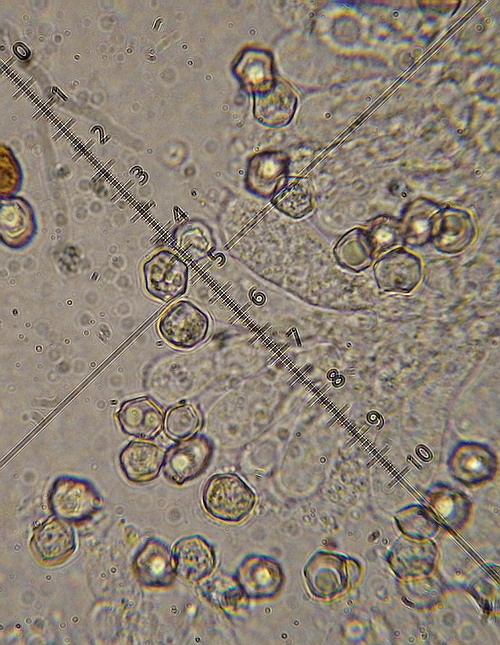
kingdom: Fungi
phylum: Basidiomycota
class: Agaricomycetes
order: Agaricales
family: Entolomataceae
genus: Entoloma
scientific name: Entoloma sericeum
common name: silkeglinsende rødblad
